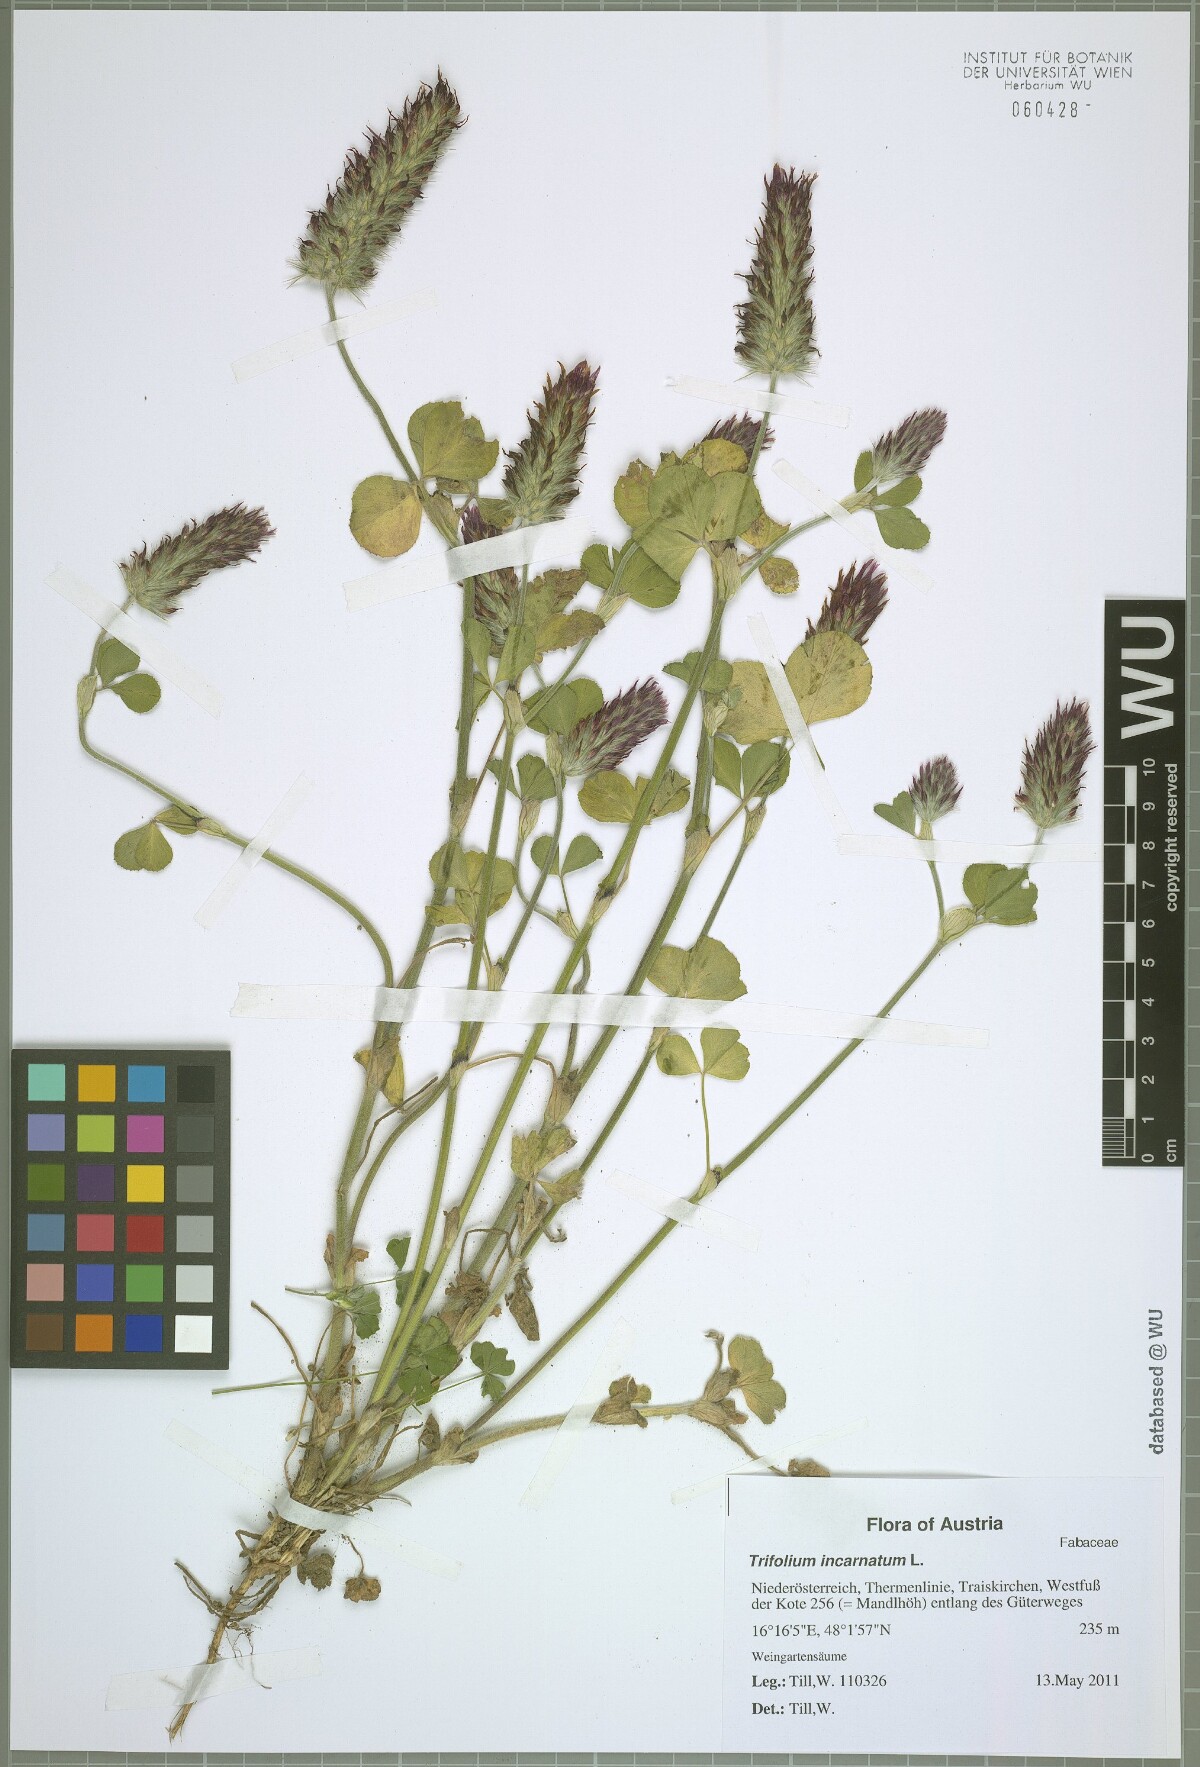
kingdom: Plantae
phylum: Tracheophyta
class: Magnoliopsida
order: Fabales
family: Fabaceae
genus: Trifolium
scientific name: Trifolium incarnatum
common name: Crimson clover
